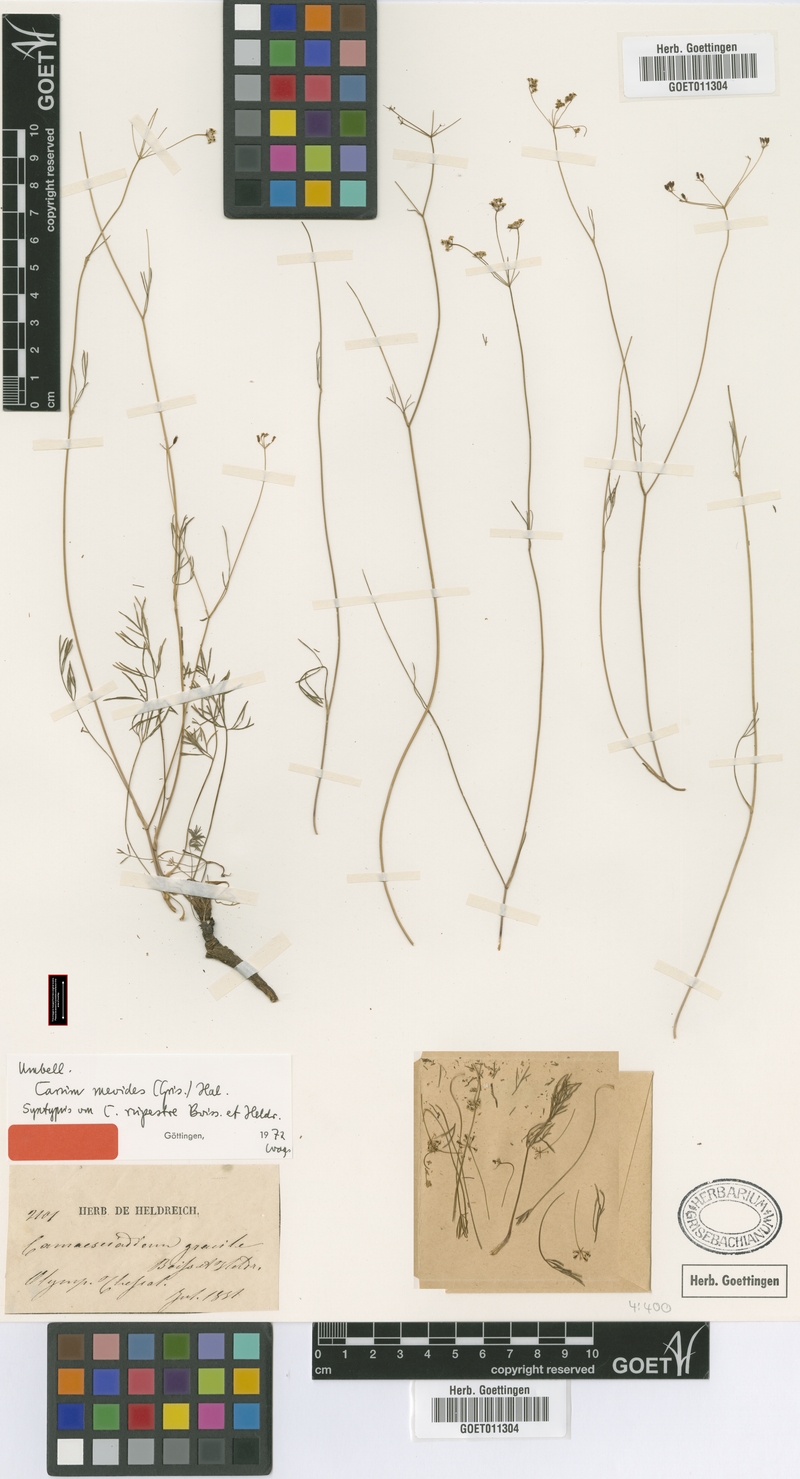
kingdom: Plantae
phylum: Tracheophyta
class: Magnoliopsida
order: Apiales
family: Apiaceae
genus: Carum
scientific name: Carum meoides
